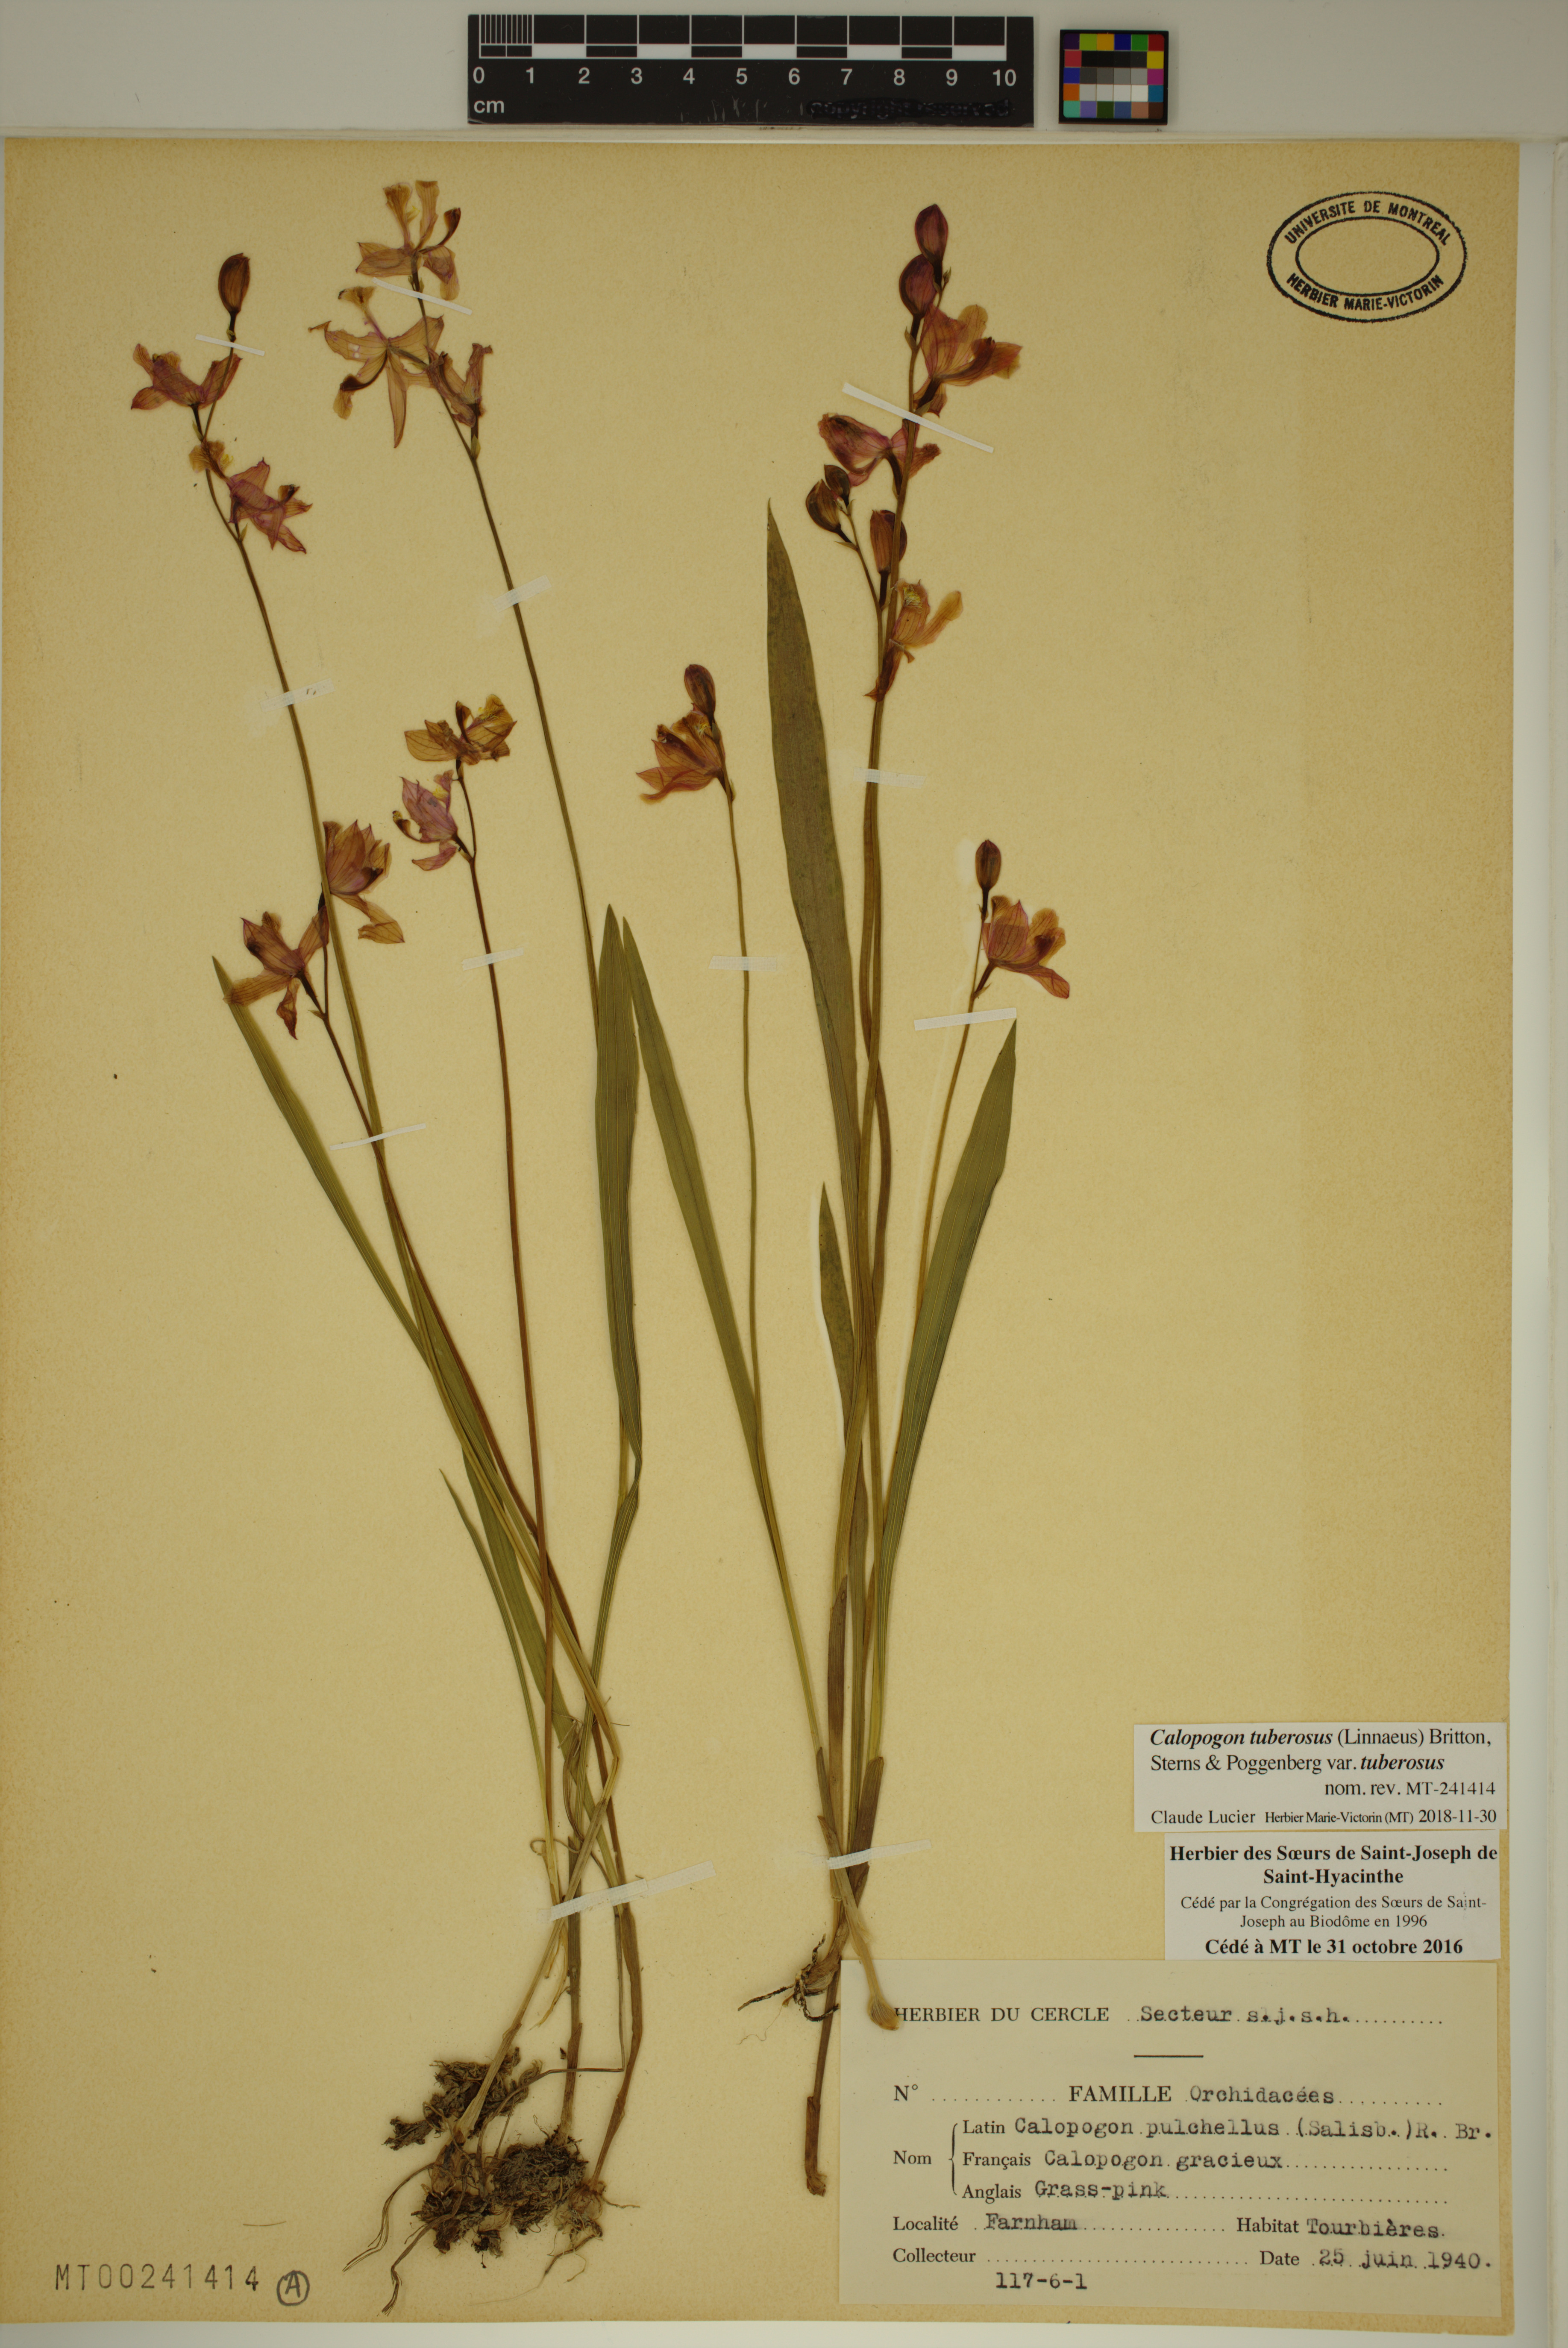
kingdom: Plantae
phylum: Tracheophyta
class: Liliopsida
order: Asparagales
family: Orchidaceae
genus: Calopogon
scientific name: Calopogon tuberosus
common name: Grass-pink
